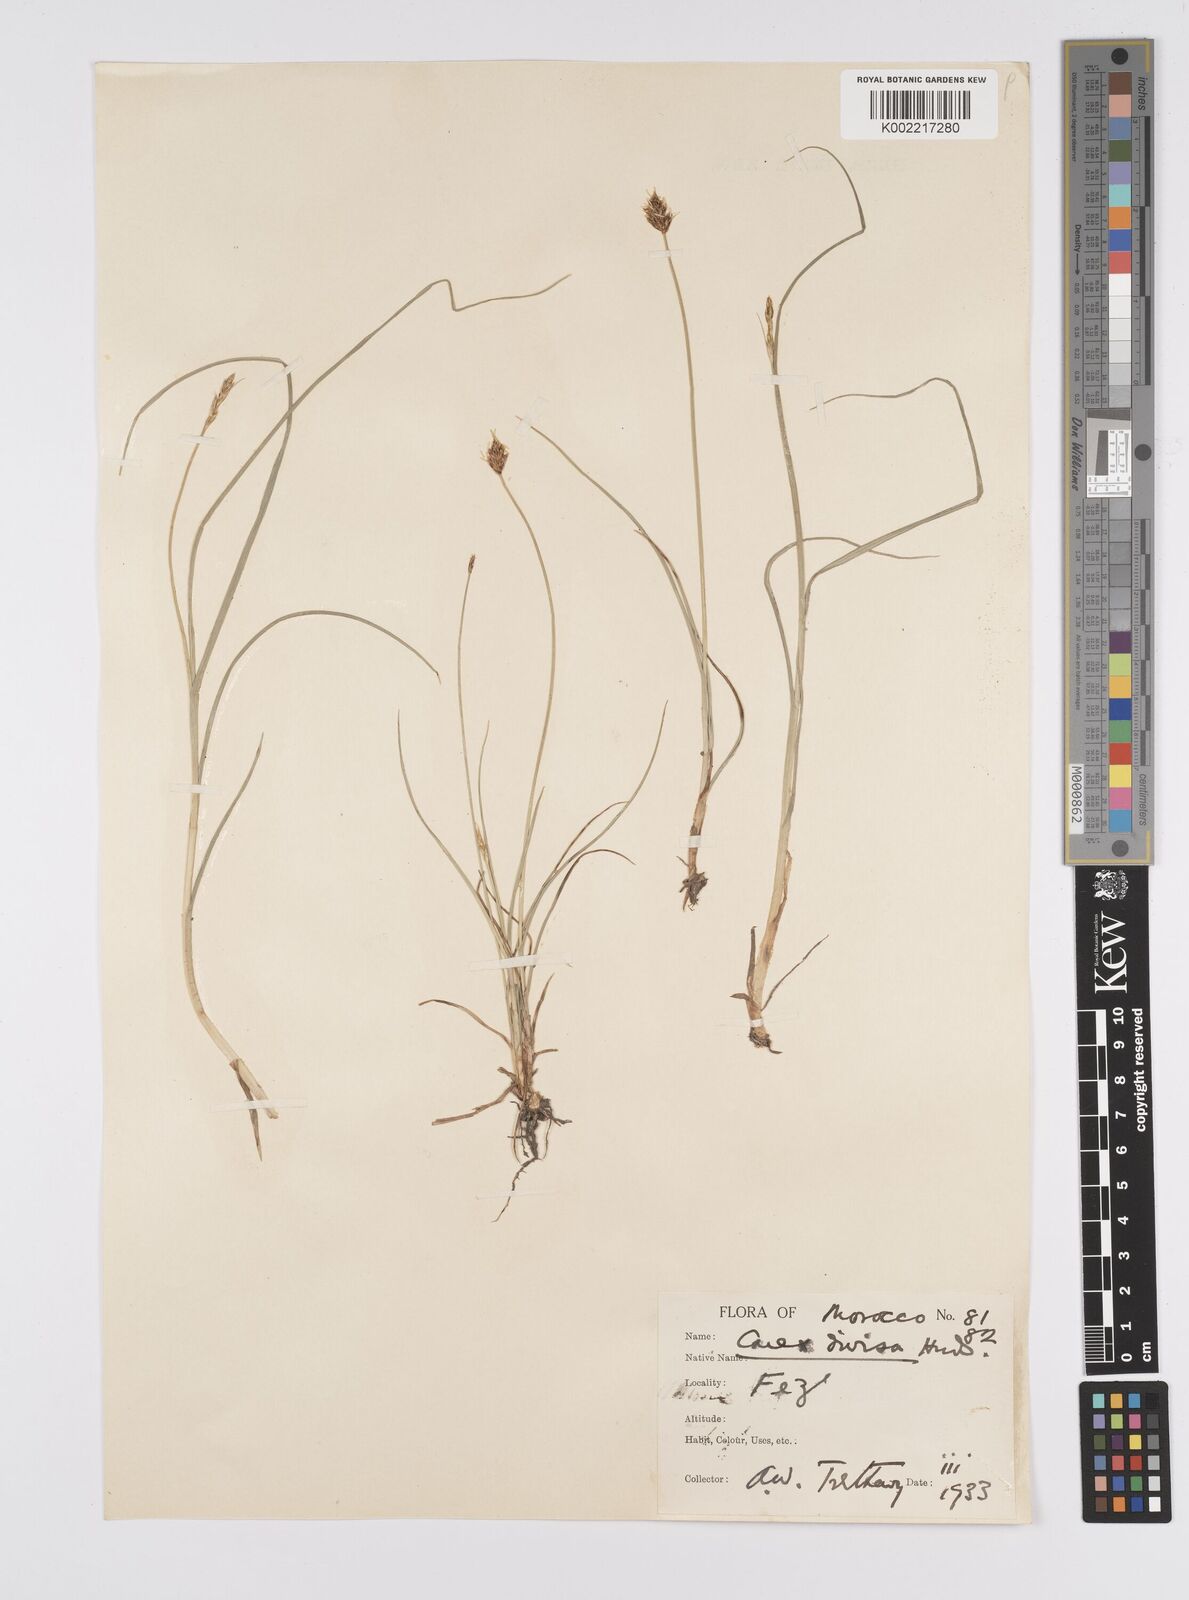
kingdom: Plantae
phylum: Tracheophyta
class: Liliopsida
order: Poales
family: Cyperaceae
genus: Carex
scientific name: Carex divisa
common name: Divided sedge
